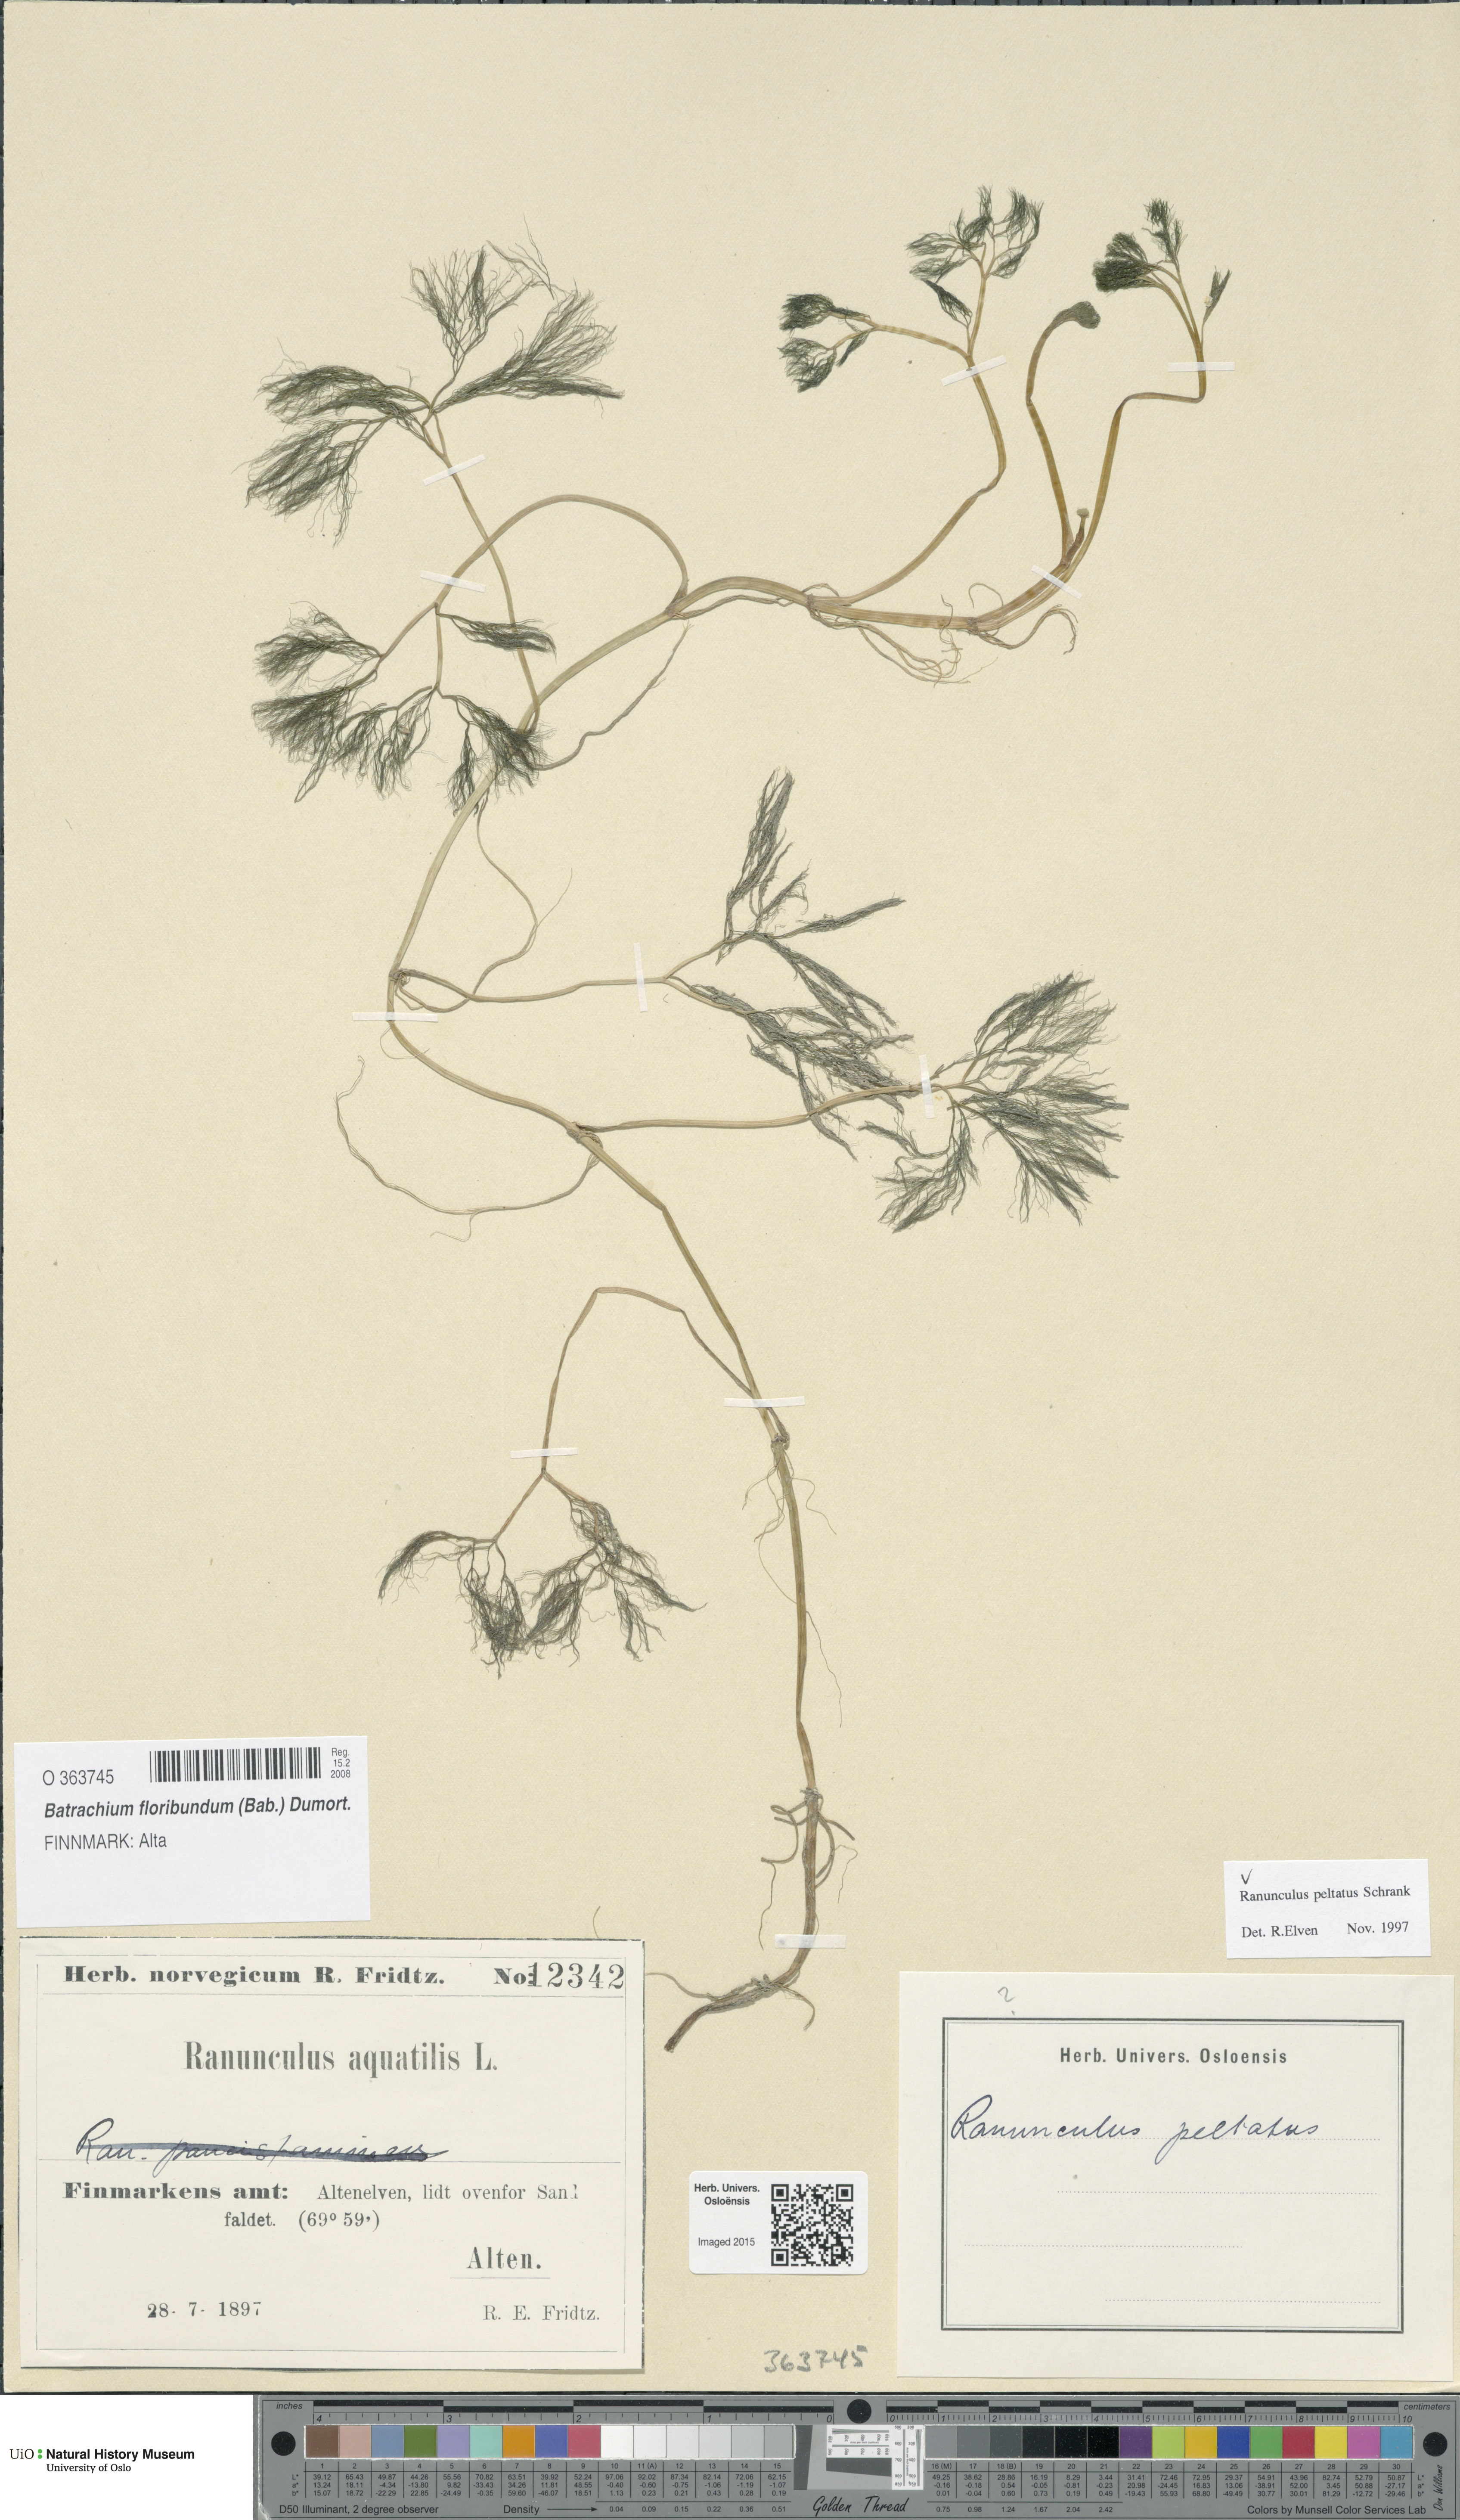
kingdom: Plantae
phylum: Tracheophyta
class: Magnoliopsida
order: Ranunculales
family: Ranunculaceae
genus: Ranunculus
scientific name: Ranunculus peltatus
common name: Pond water-crowfoot
